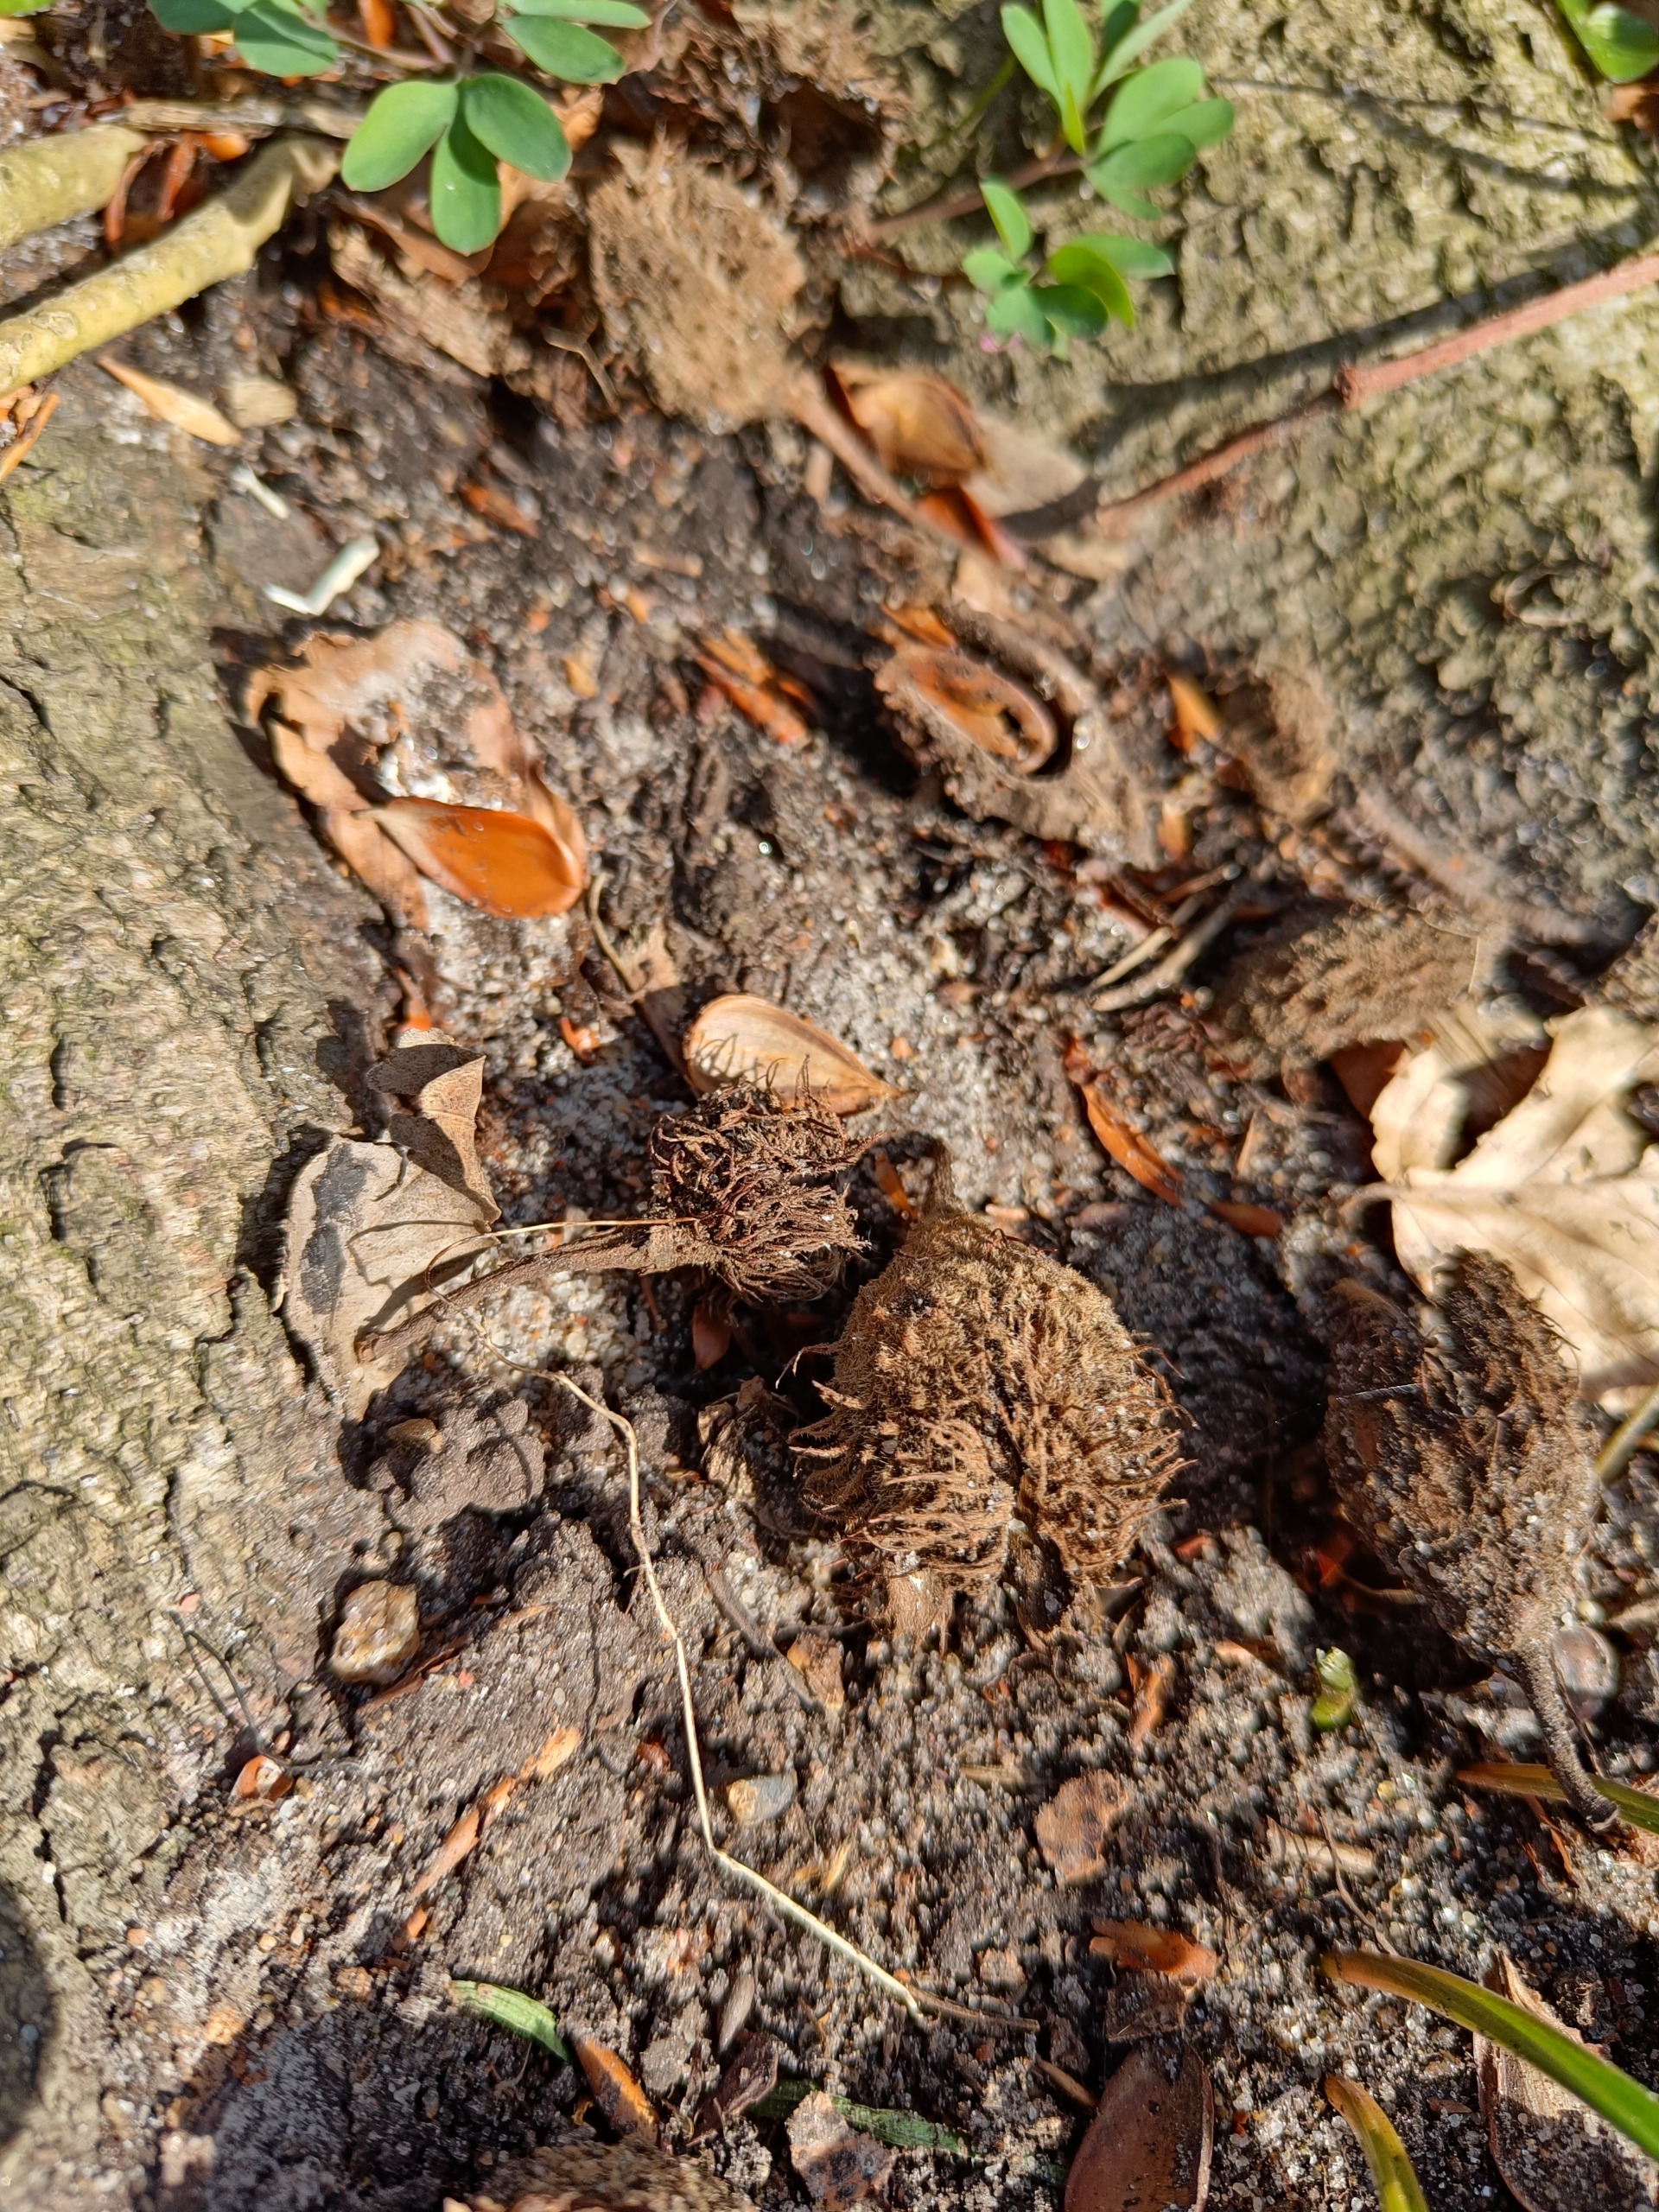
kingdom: Plantae
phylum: Tracheophyta
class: Magnoliopsida
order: Fagales
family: Fagaceae
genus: Fagus
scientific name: Fagus sylvatica
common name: Bøg
